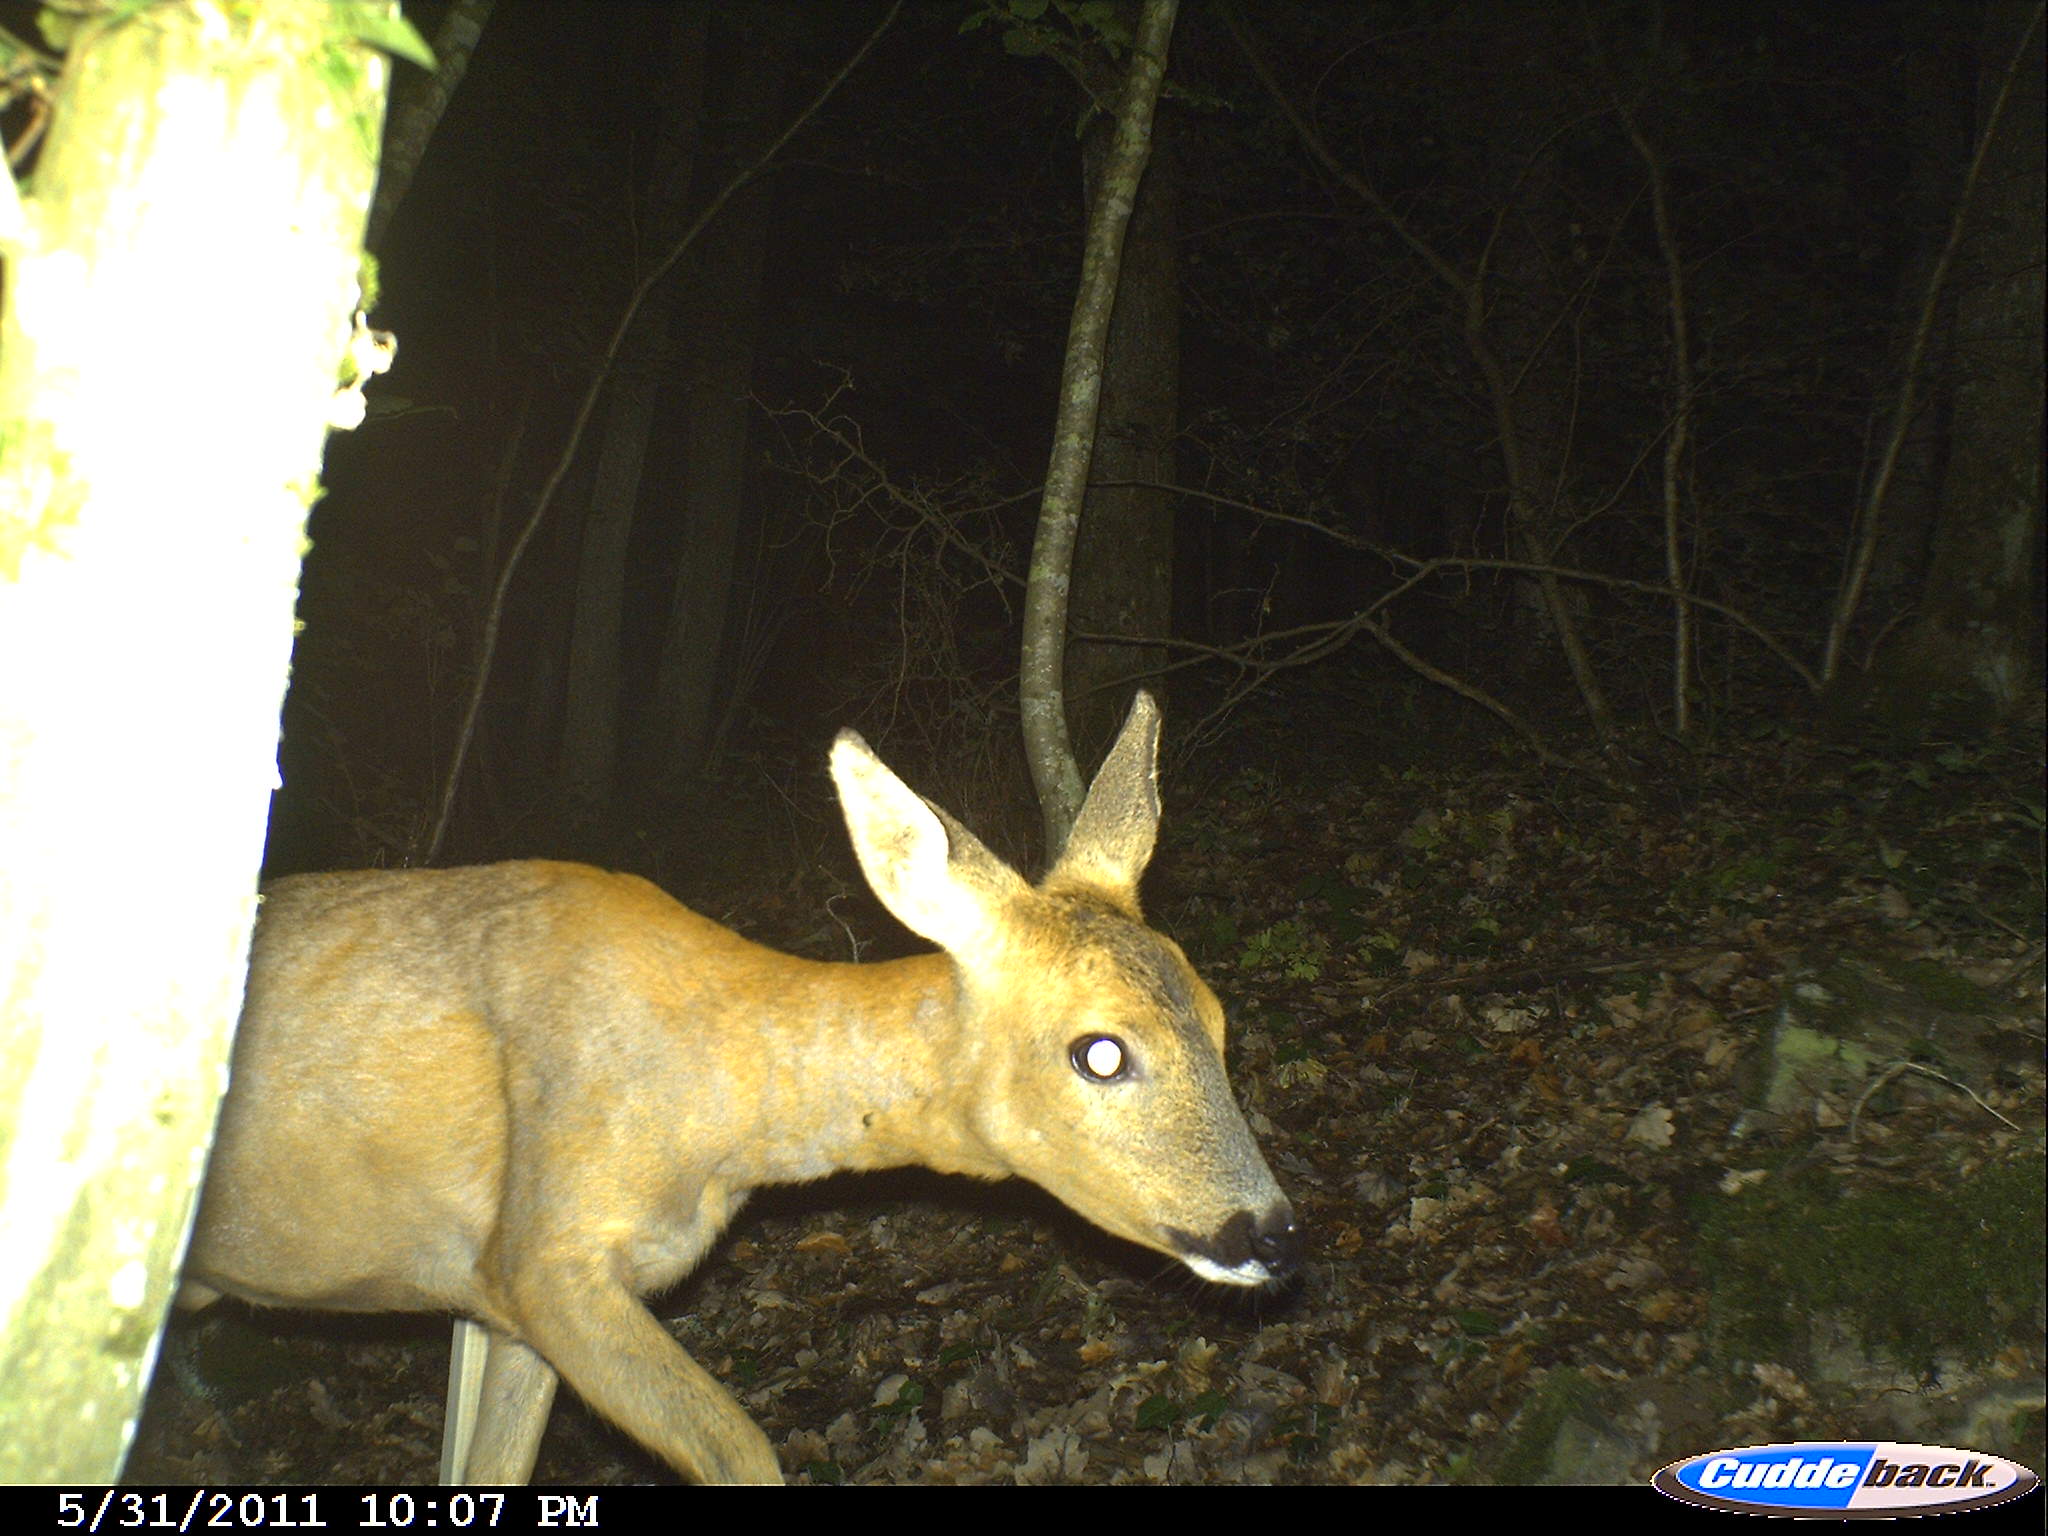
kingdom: Animalia
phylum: Chordata
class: Mammalia
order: Artiodactyla
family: Cervidae
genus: Capreolus
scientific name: Capreolus capreolus
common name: Western roe deer
